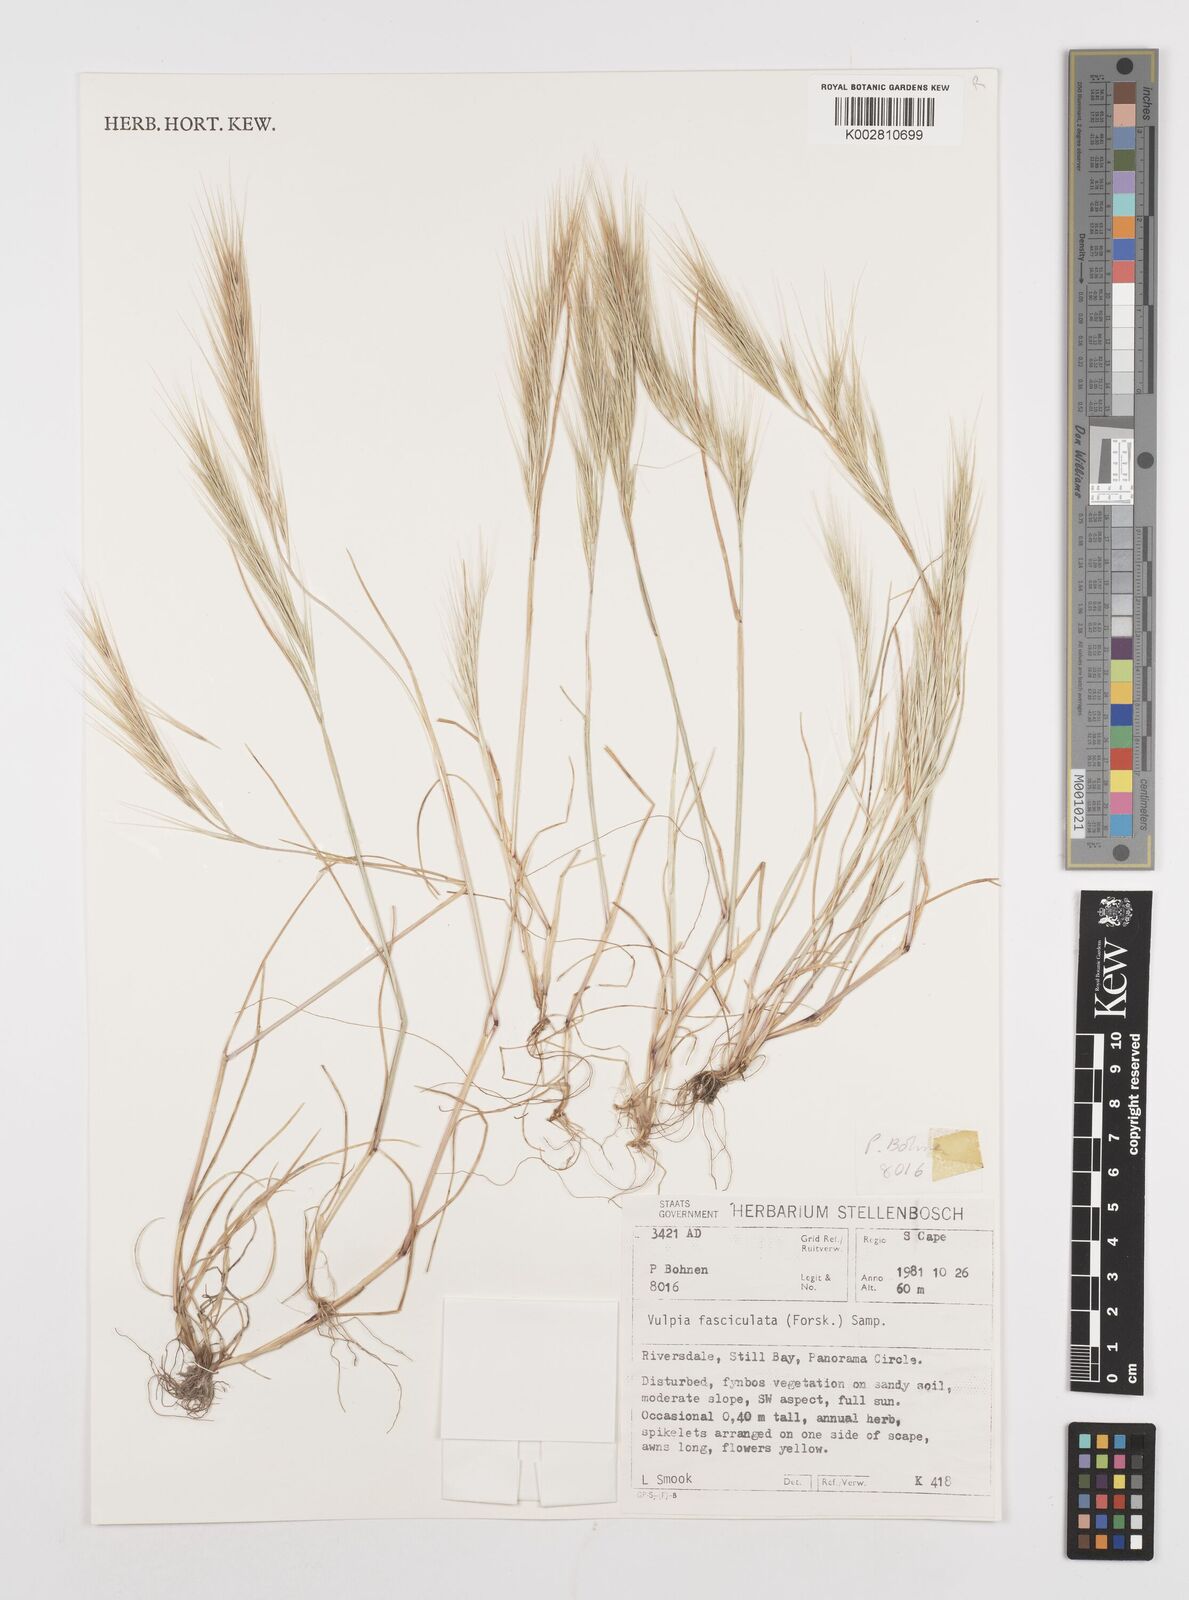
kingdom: Plantae
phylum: Tracheophyta
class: Liliopsida
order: Poales
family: Poaceae
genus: Festuca
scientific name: Festuca fasciculata
